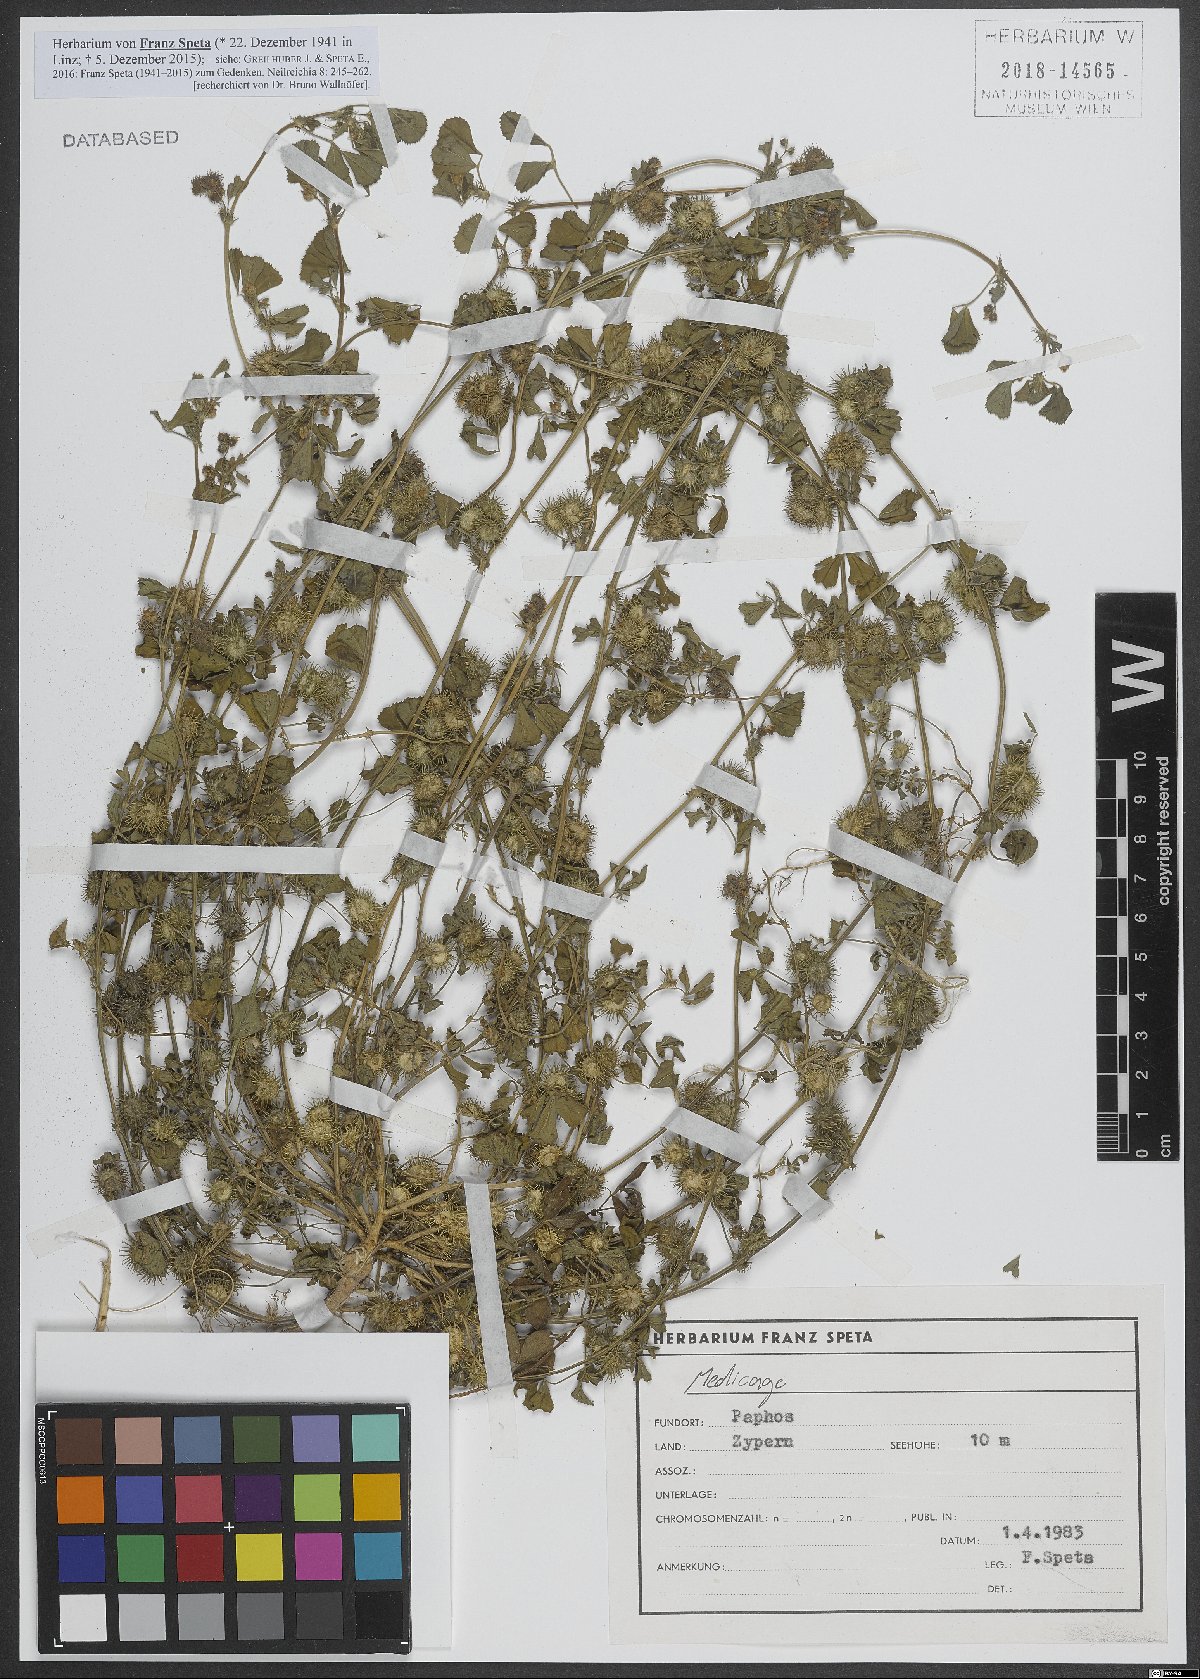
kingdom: Plantae
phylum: Tracheophyta
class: Magnoliopsida
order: Fabales
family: Fabaceae
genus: Medicago
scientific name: Medicago
